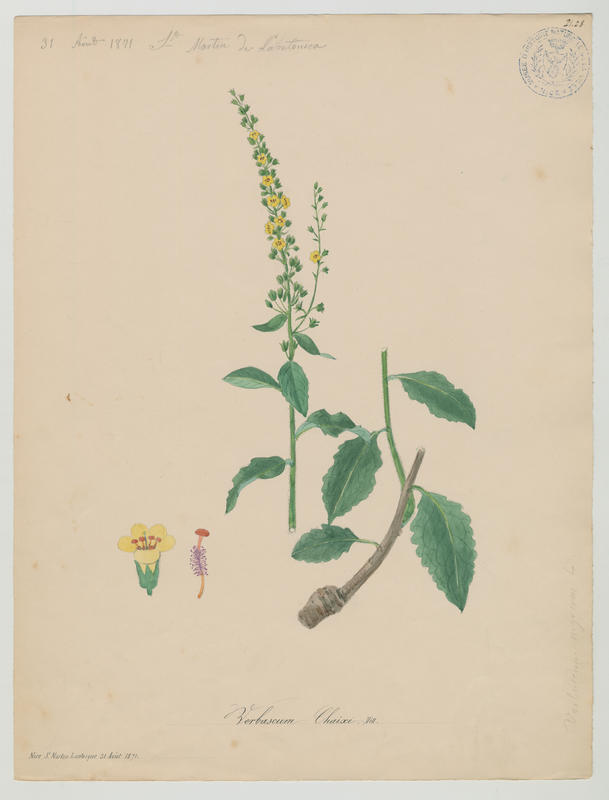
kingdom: Plantae
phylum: Tracheophyta
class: Magnoliopsida
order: Lamiales
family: Scrophulariaceae
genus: Verbascum
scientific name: Verbascum chaixii
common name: Nettle-leaved mullein
